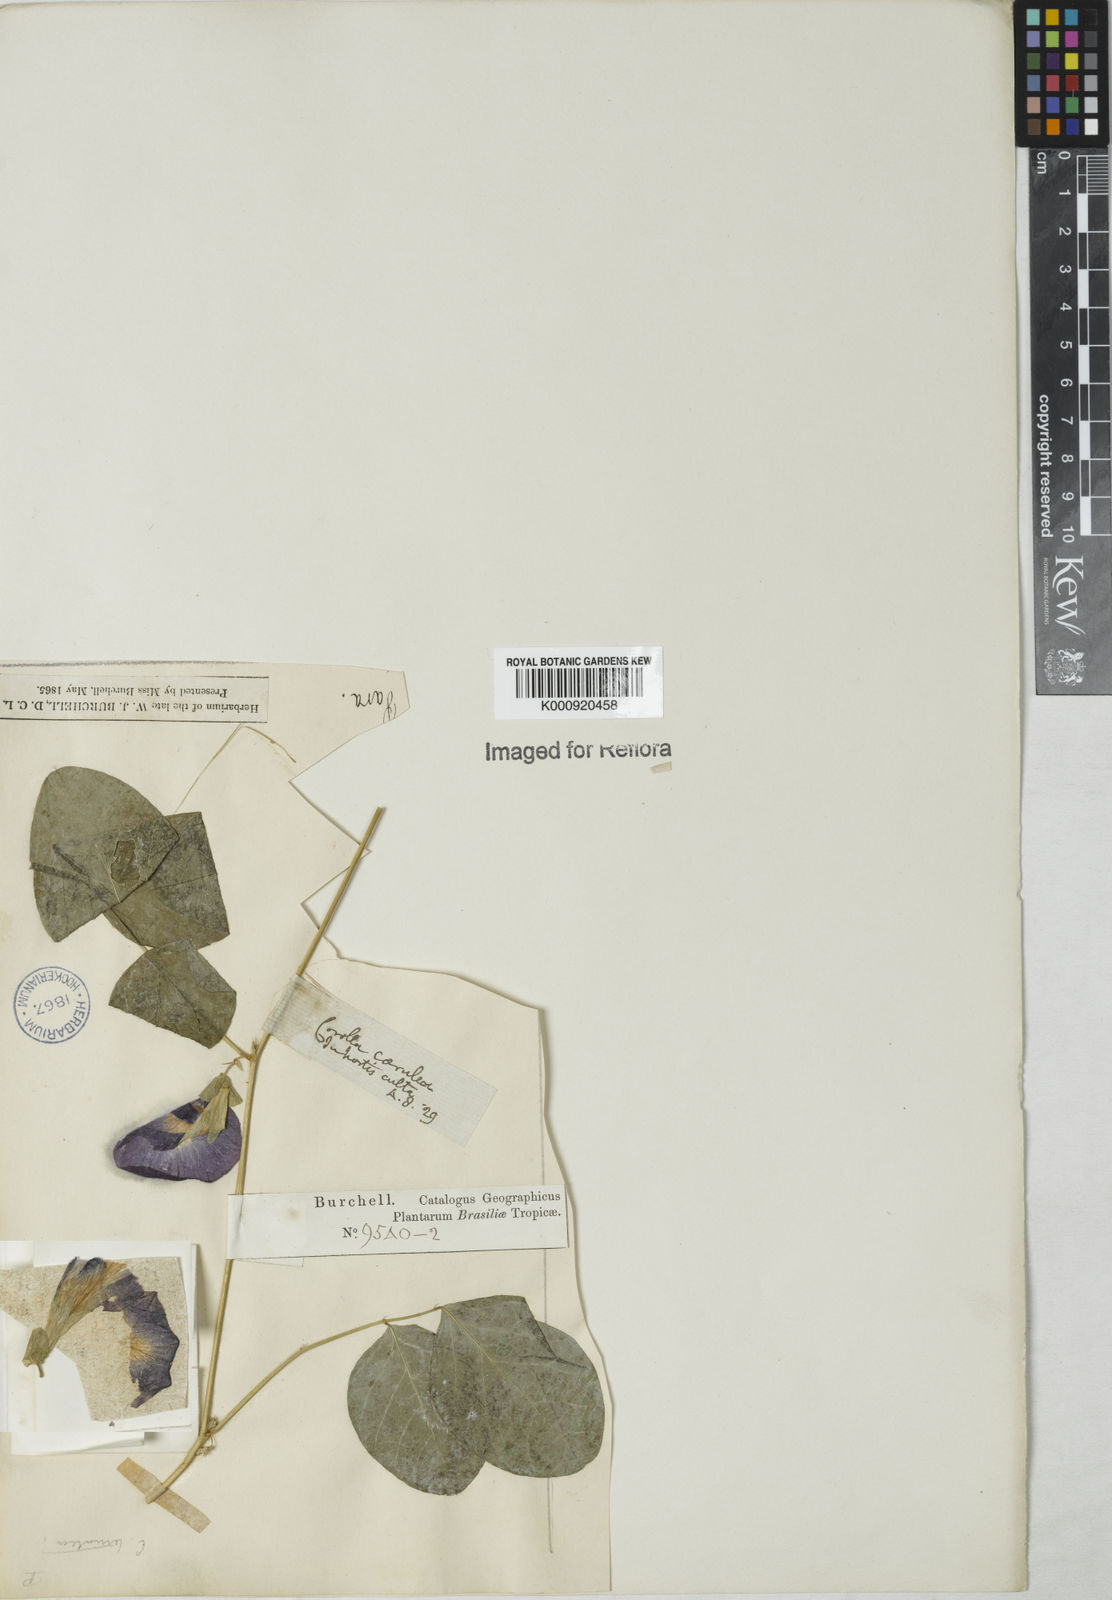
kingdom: Plantae
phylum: Tracheophyta
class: Magnoliopsida
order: Fabales
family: Fabaceae
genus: Clitoria
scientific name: Clitoria ternatea
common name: Asian pigeonwings
